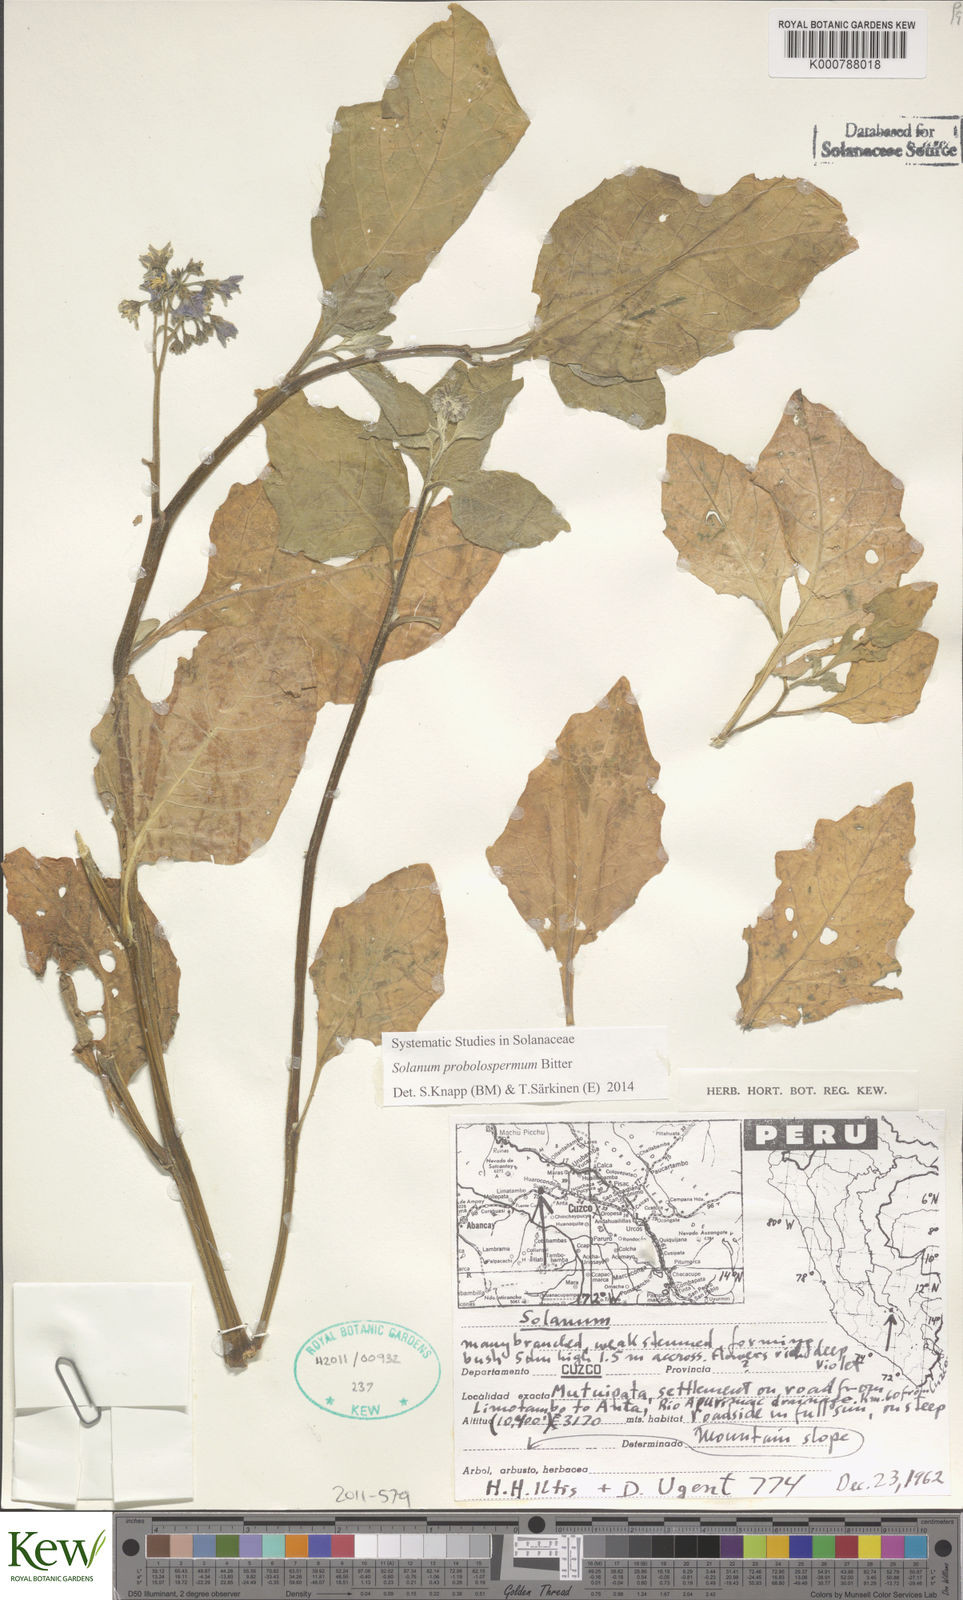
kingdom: Plantae
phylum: Tracheophyta
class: Magnoliopsida
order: Solanales
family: Solanaceae
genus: Solanum
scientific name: Solanum probolospermum
